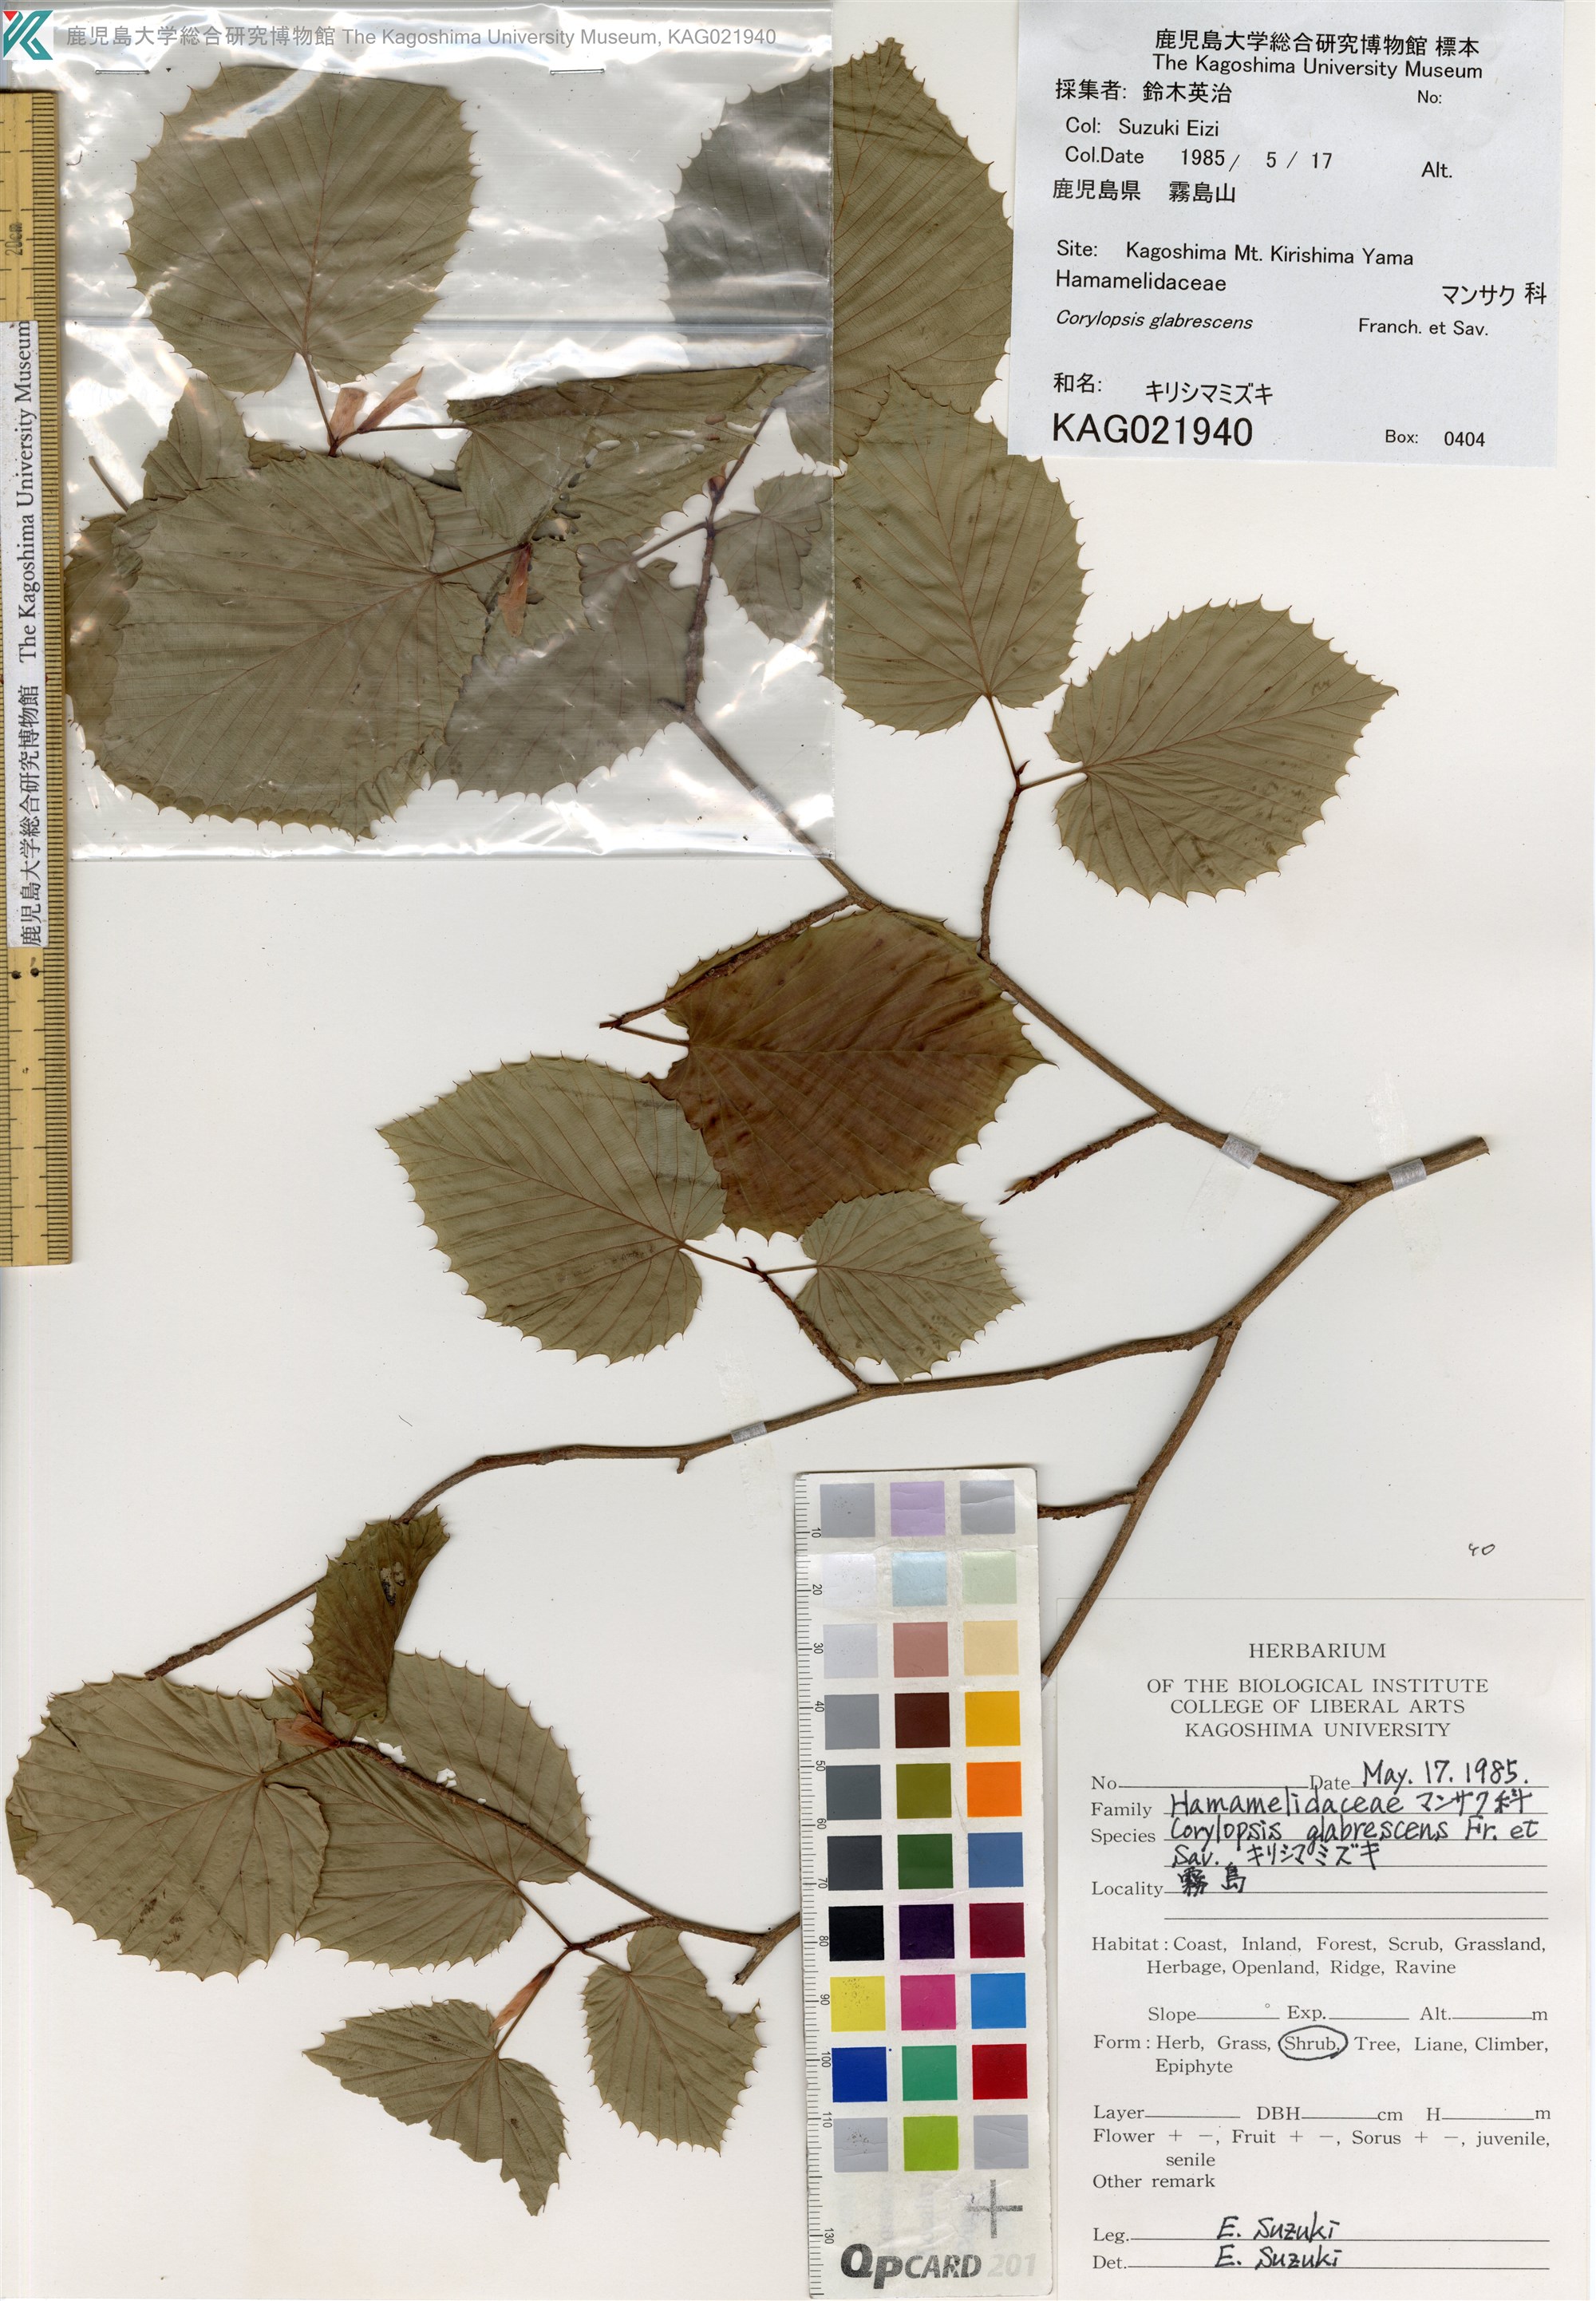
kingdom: Plantae
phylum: Tracheophyta
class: Magnoliopsida
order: Saxifragales
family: Hamamelidaceae
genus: Corylopsis
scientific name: Corylopsis glabrescens
